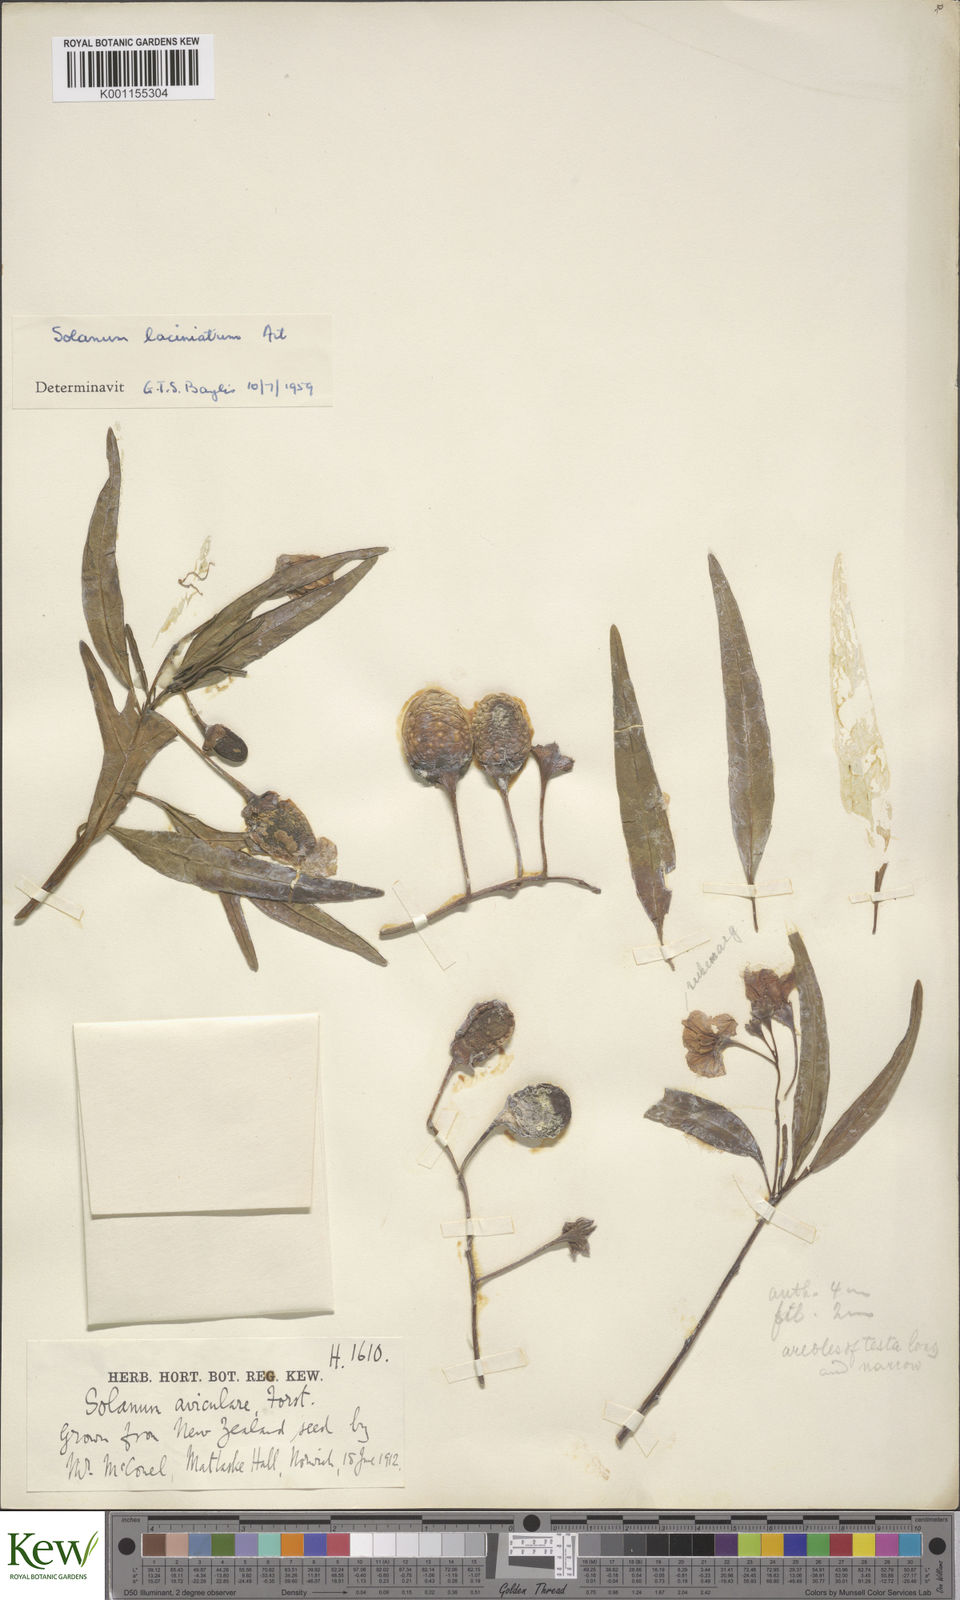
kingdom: Plantae
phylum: Tracheophyta
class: Magnoliopsida
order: Solanales
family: Solanaceae
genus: Solanum
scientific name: Solanum laciniatum
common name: Kangaroo-apple
